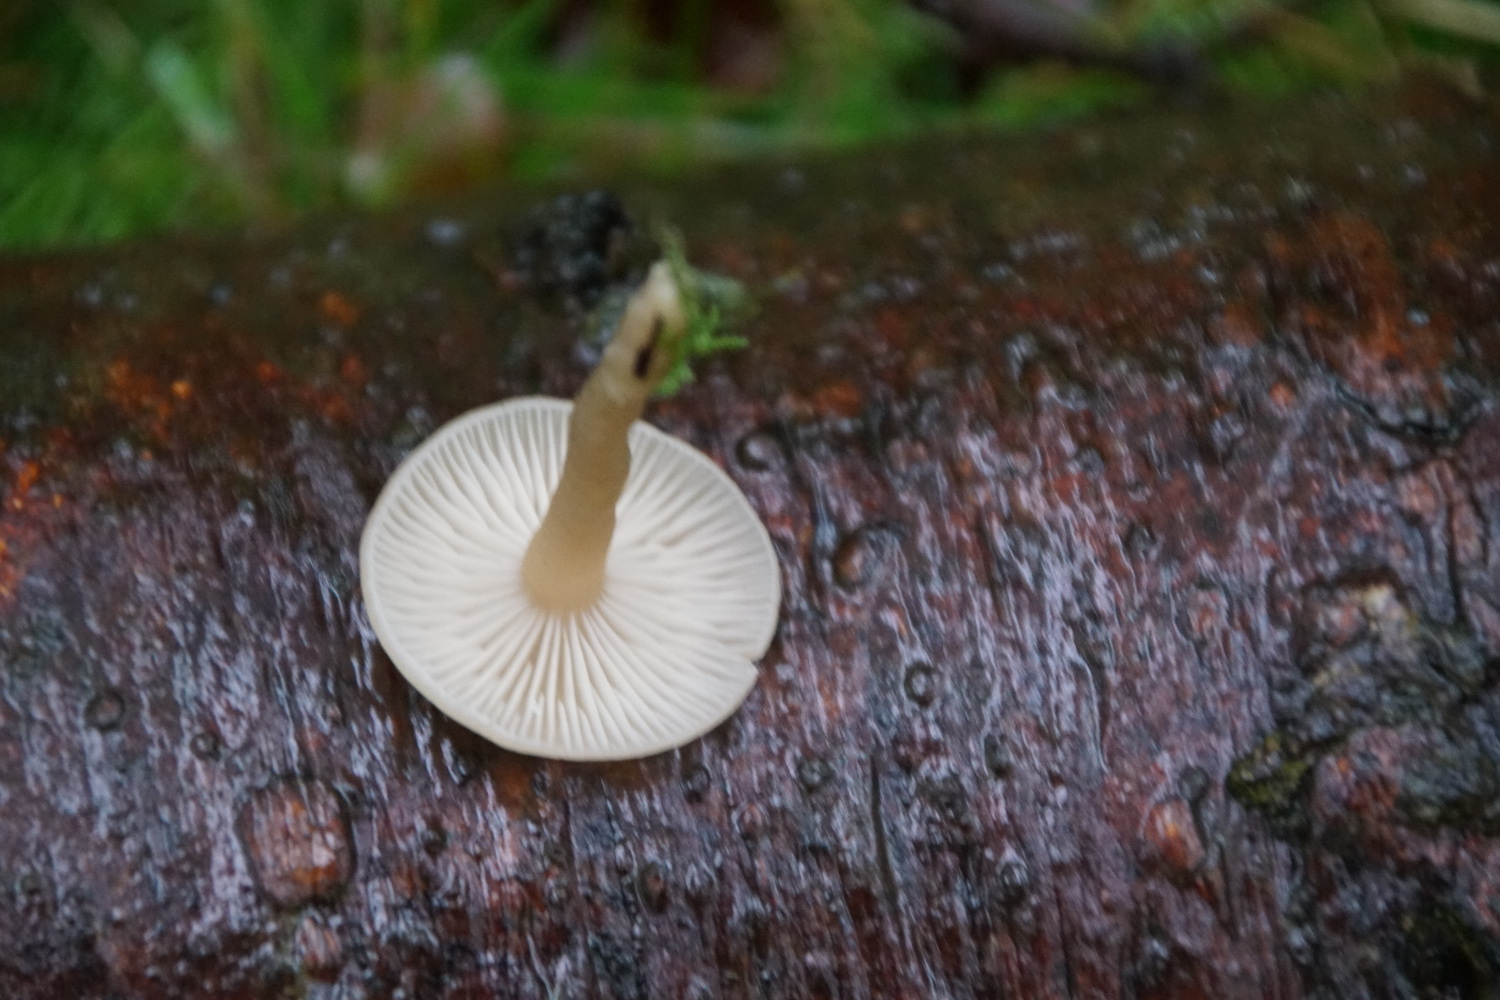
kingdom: Fungi
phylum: Basidiomycota
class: Agaricomycetes
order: Agaricales
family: Tricholomataceae
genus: Clitocybe
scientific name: Clitocybe fragrans
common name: vellugtende tragthat
